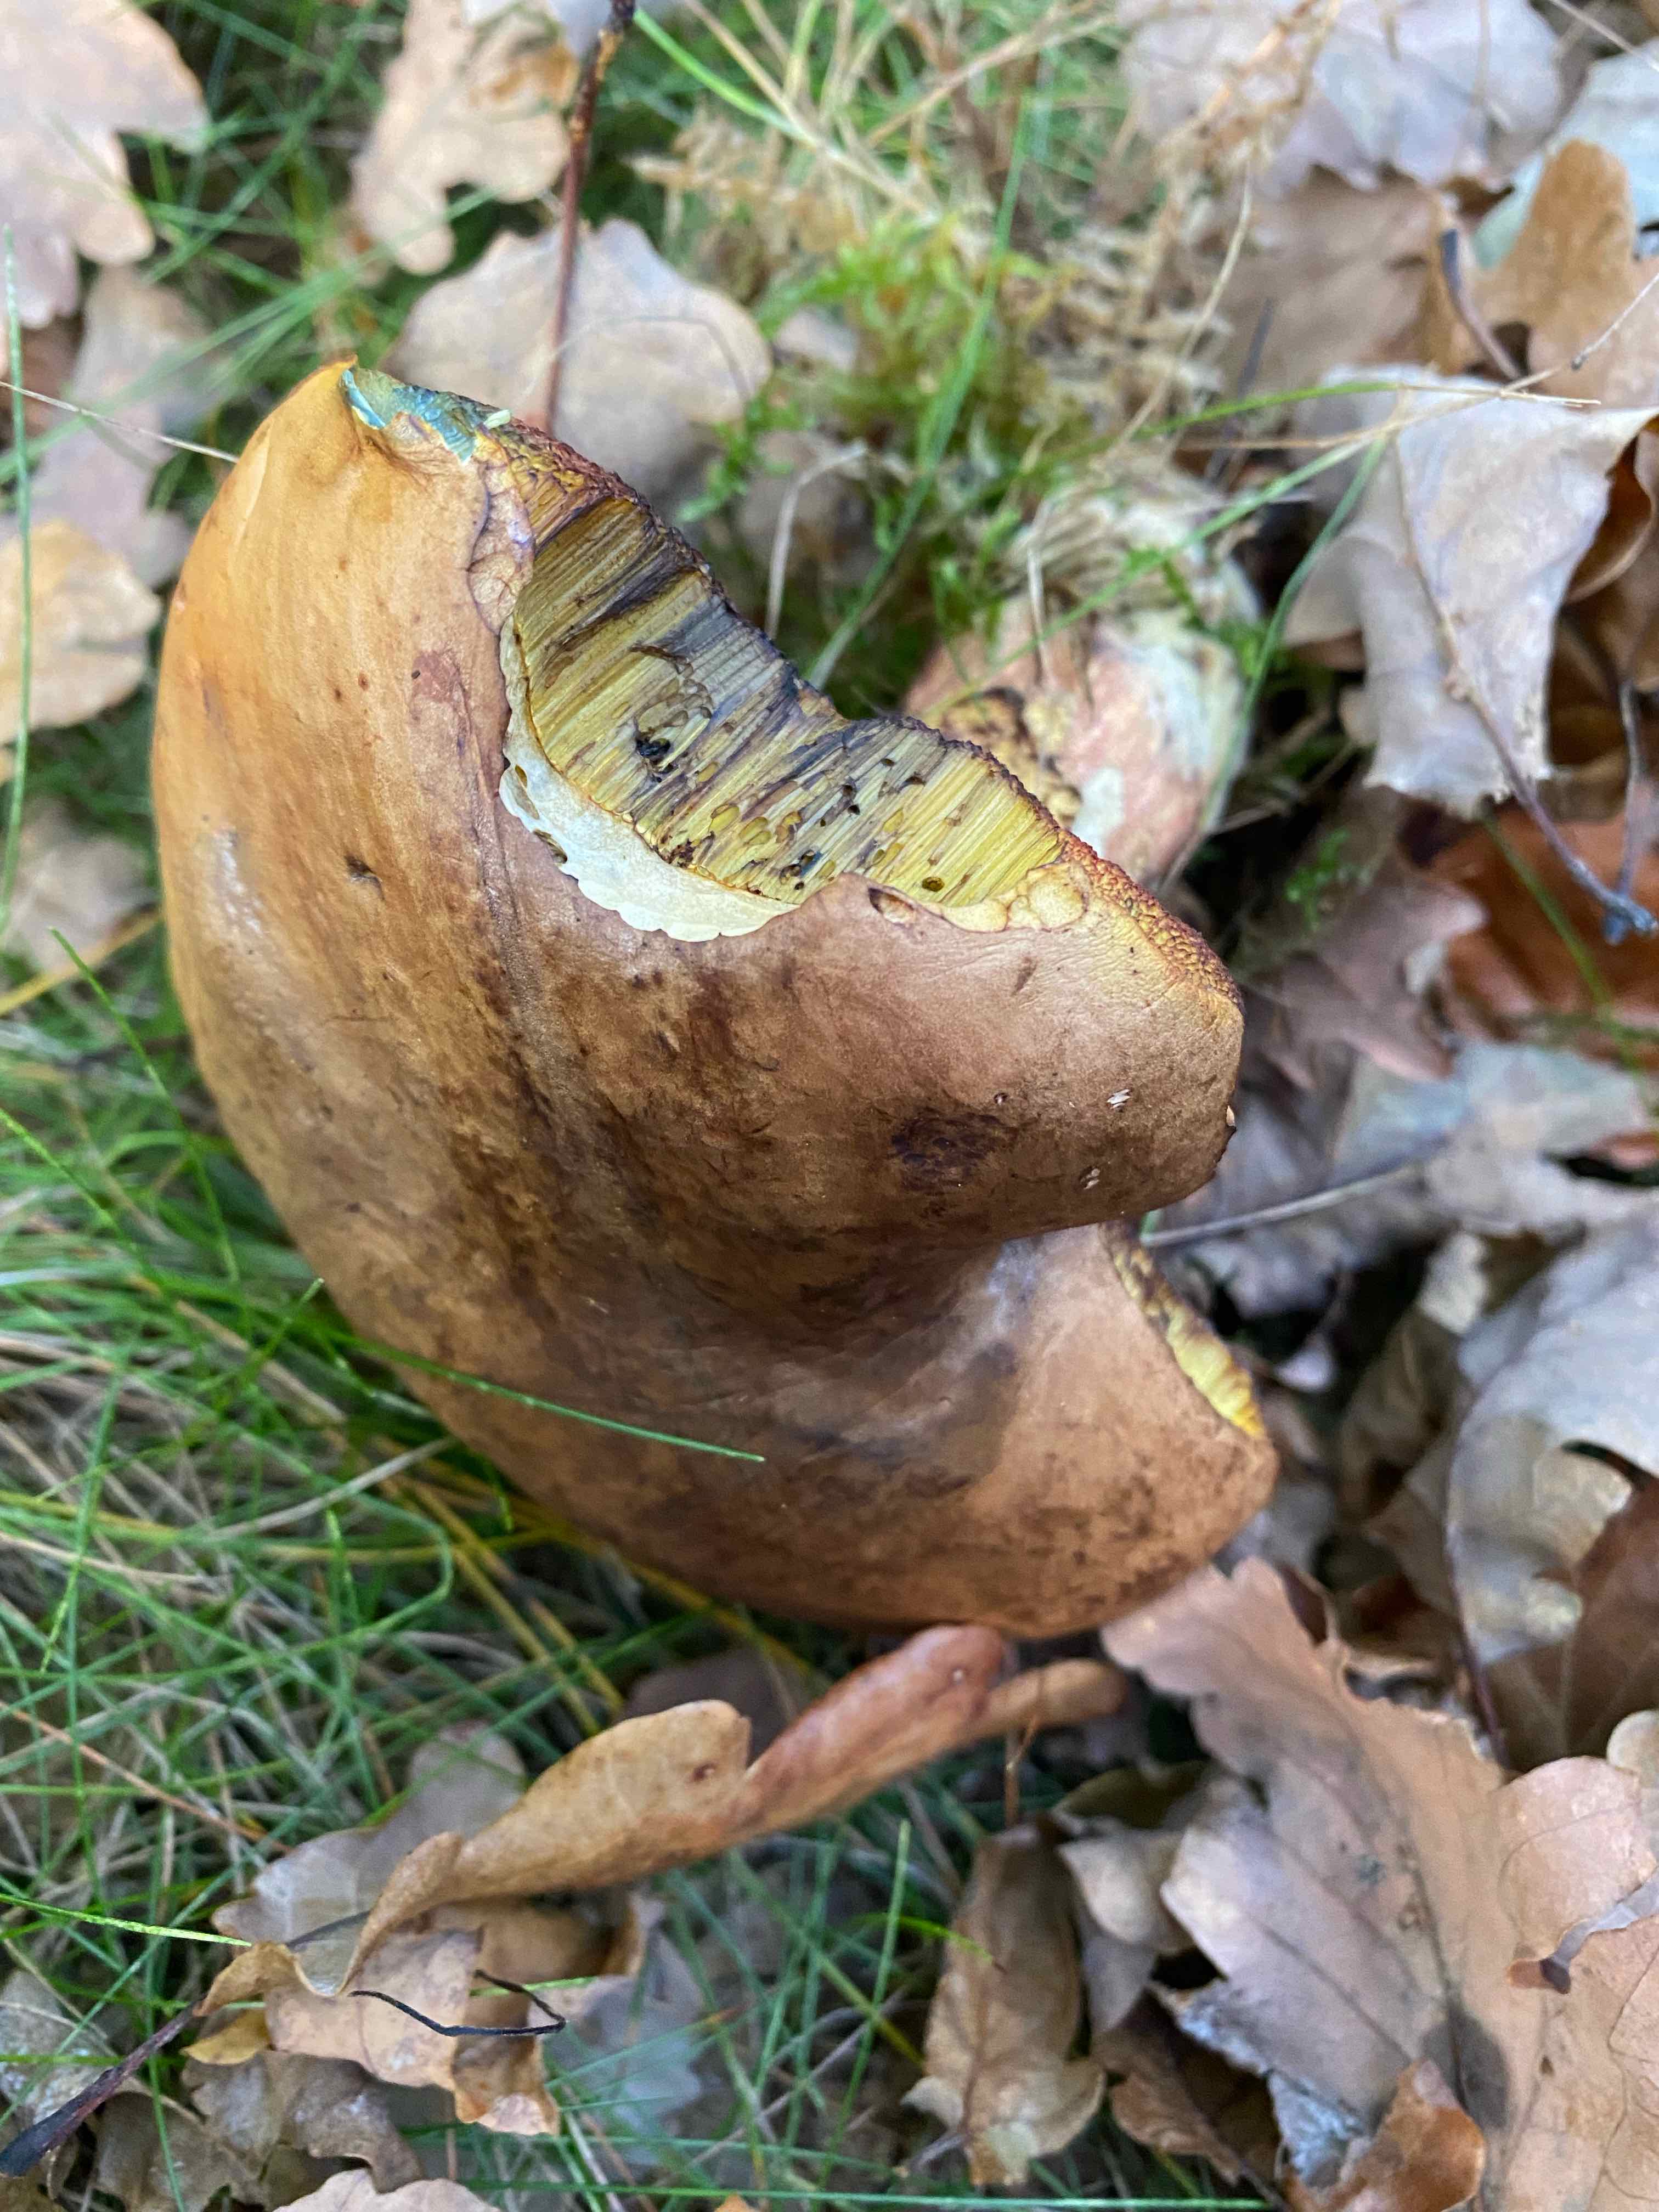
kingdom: Fungi
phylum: Basidiomycota
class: Agaricomycetes
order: Boletales
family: Boletaceae
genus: Neoboletus
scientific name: Neoboletus erythropus
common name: punktstokket indigorørhat
